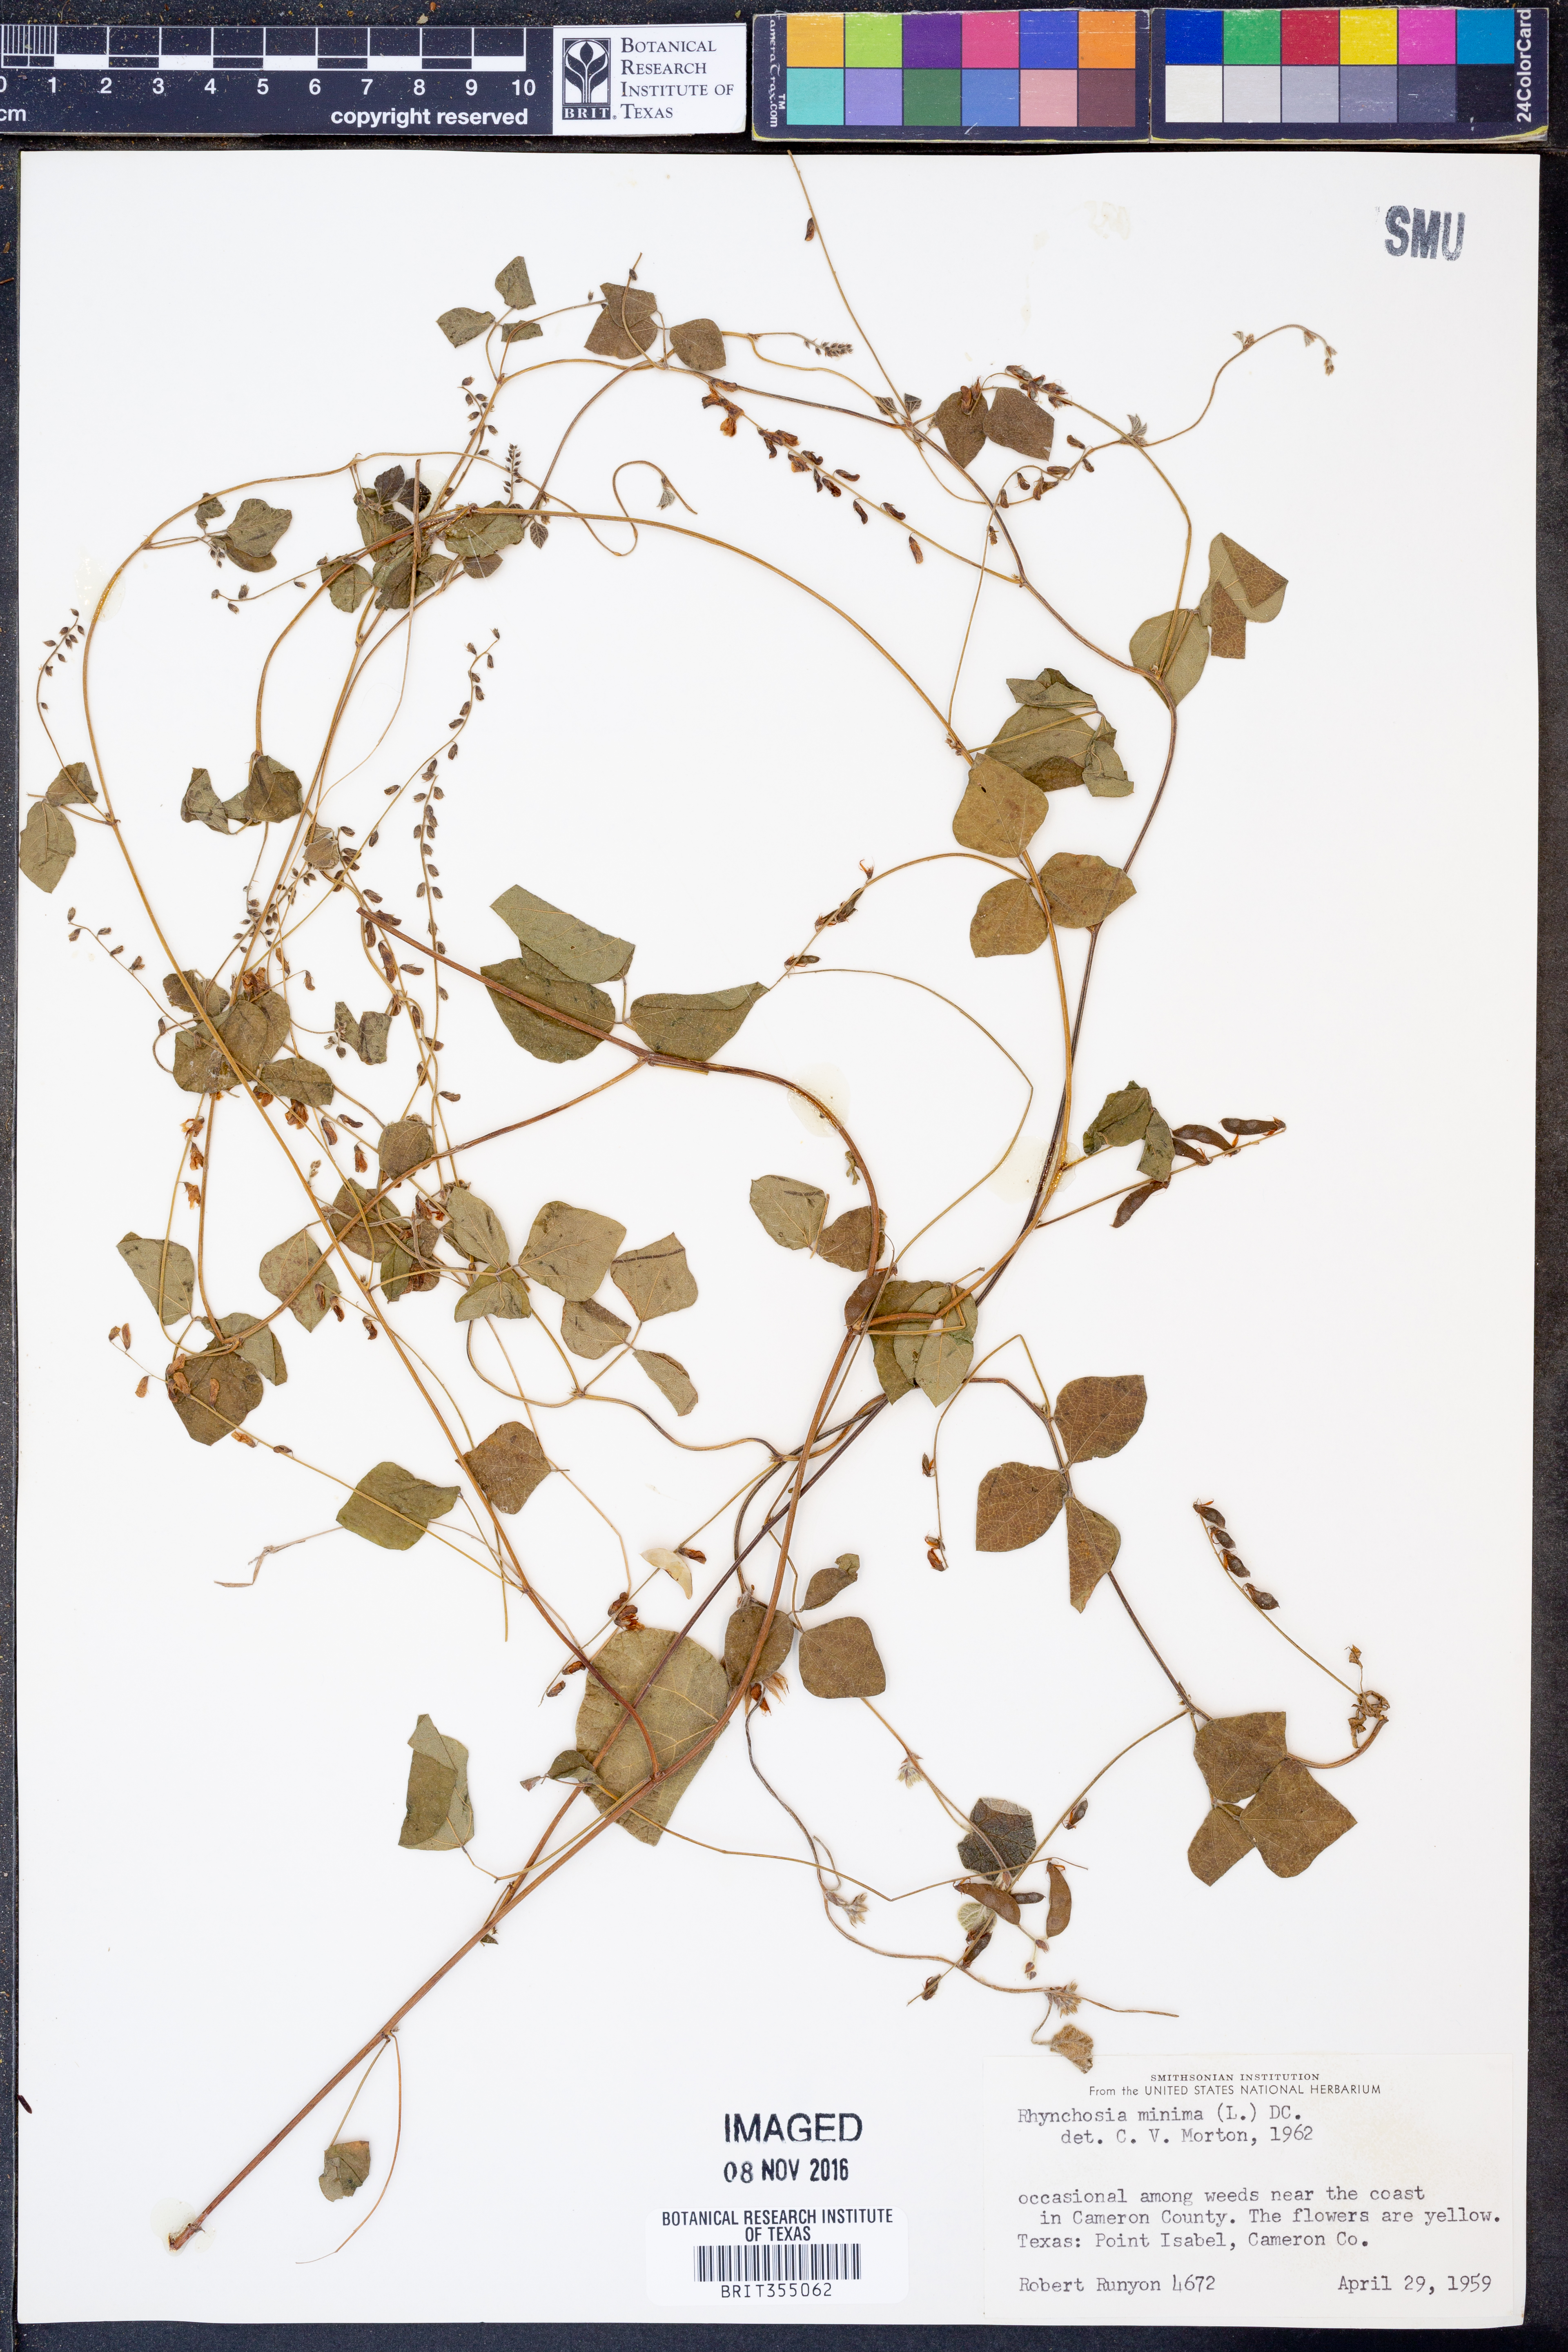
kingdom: Plantae
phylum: Tracheophyta
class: Magnoliopsida
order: Fabales
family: Fabaceae
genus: Rhynchosia
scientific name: Rhynchosia minima
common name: Least snoutbean
